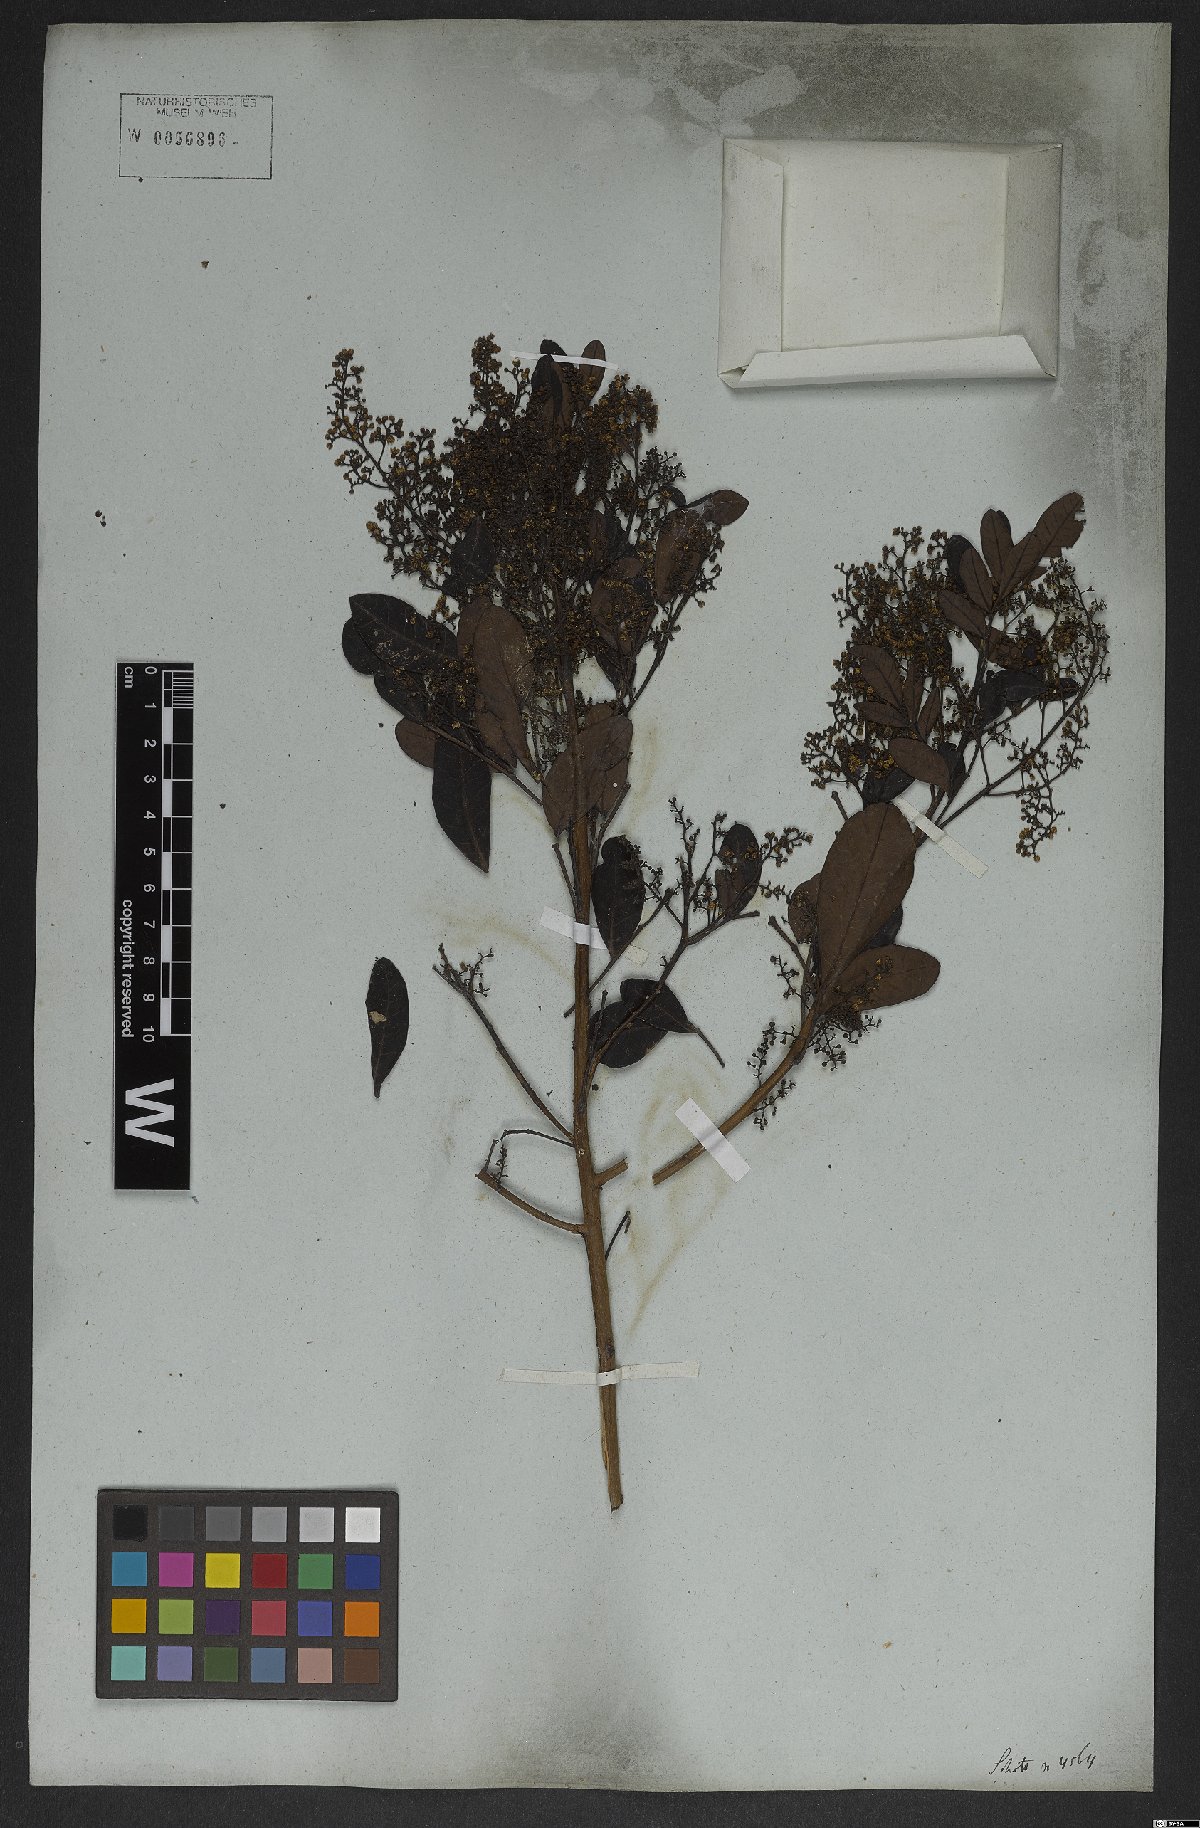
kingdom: Plantae
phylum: Tracheophyta
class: Magnoliopsida
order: Gentianales
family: Apocynaceae
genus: Tabernaemontana
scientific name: Tabernaemontana solanifolia
